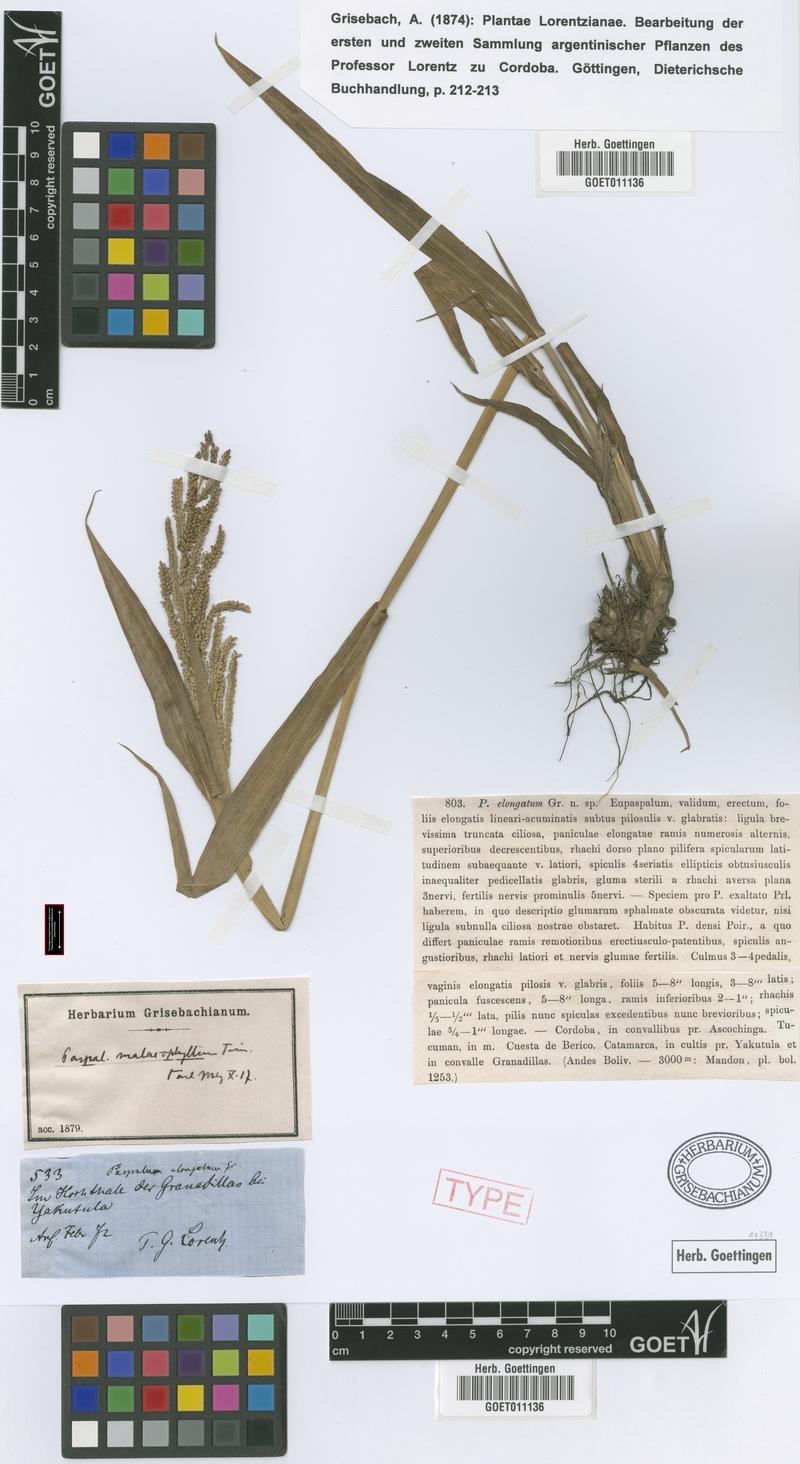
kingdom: Plantae
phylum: Tracheophyta
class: Liliopsida
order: Poales
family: Poaceae
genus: Paspalum
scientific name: Paspalum malacophyllum
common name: Ribbed paspalum
